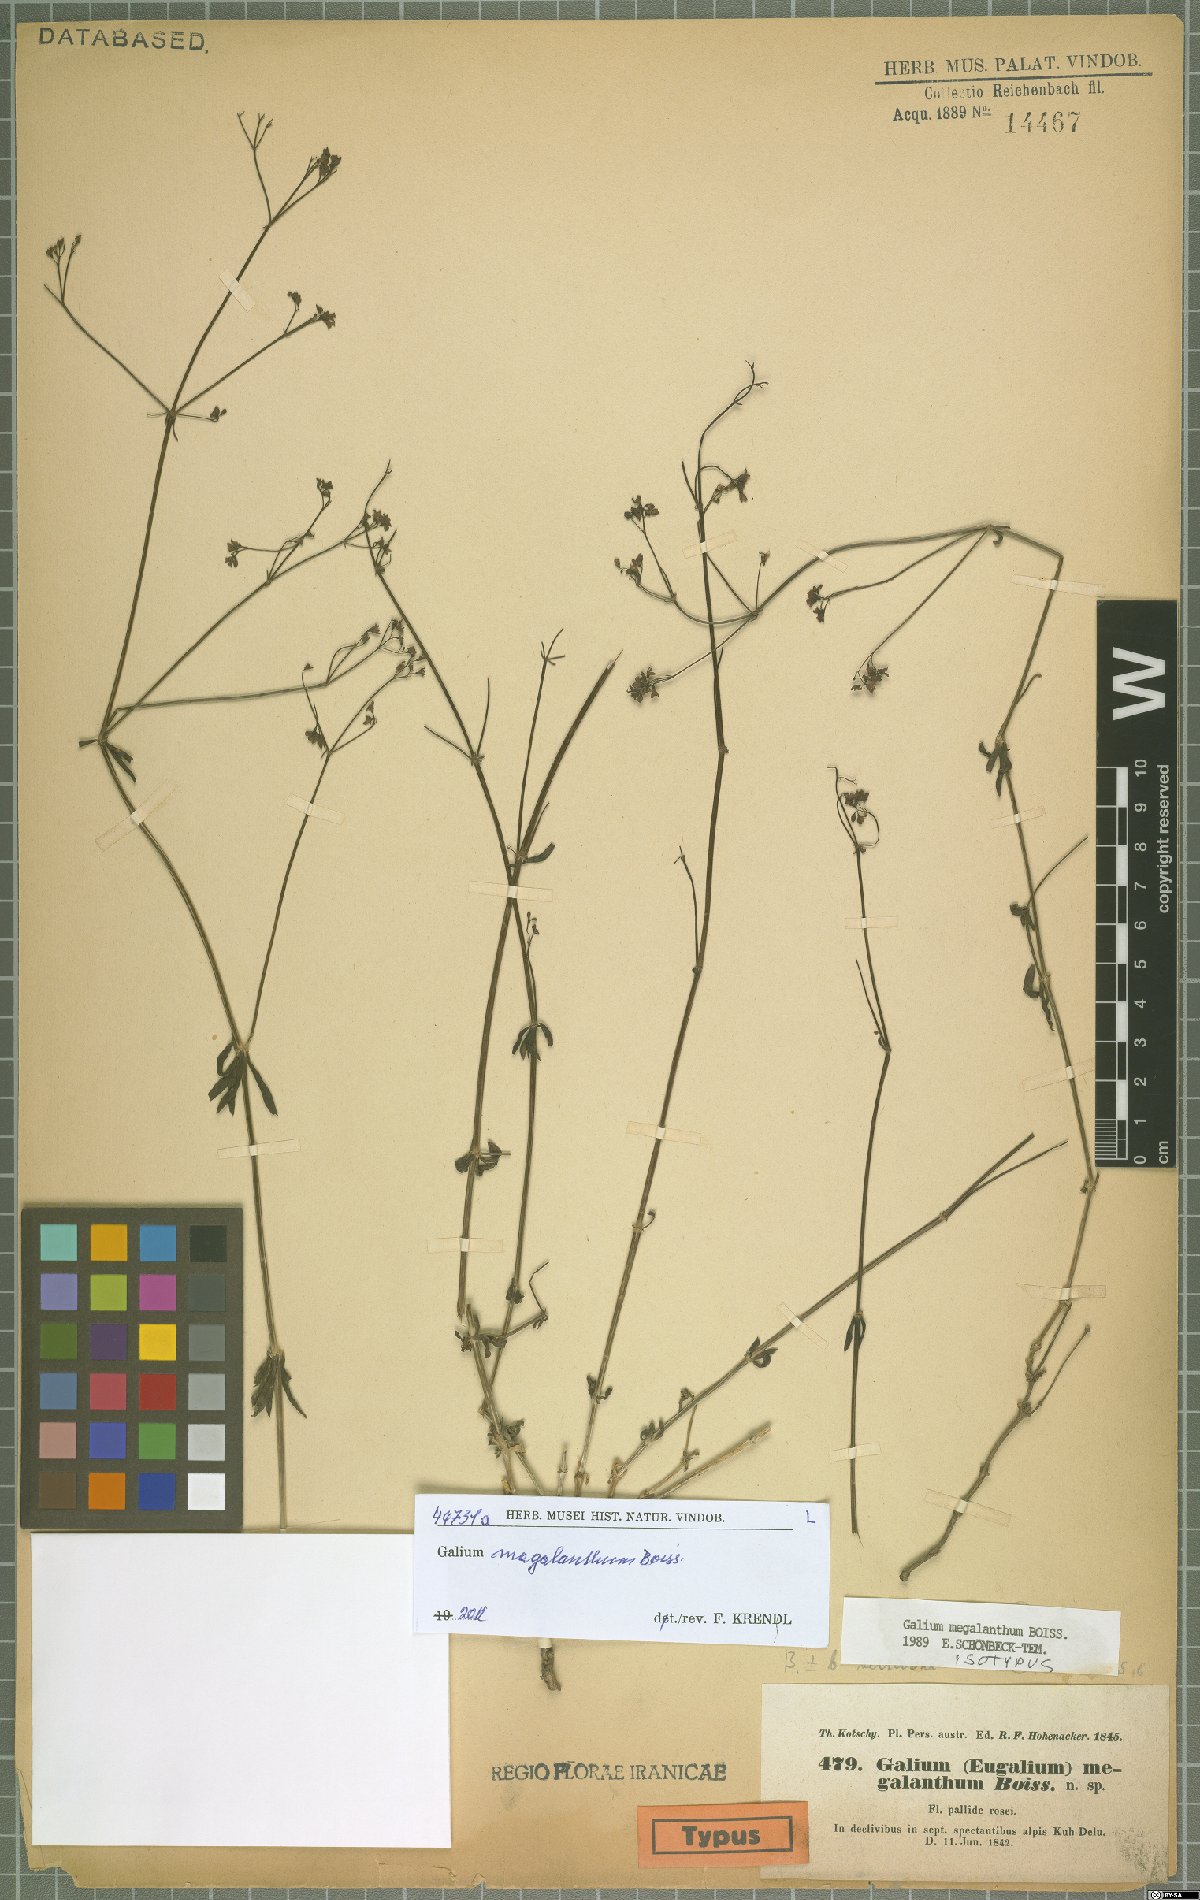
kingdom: Plantae
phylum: Tracheophyta
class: Magnoliopsida
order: Gentianales
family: Rubiaceae
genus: Galium
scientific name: Galium megalanthum
